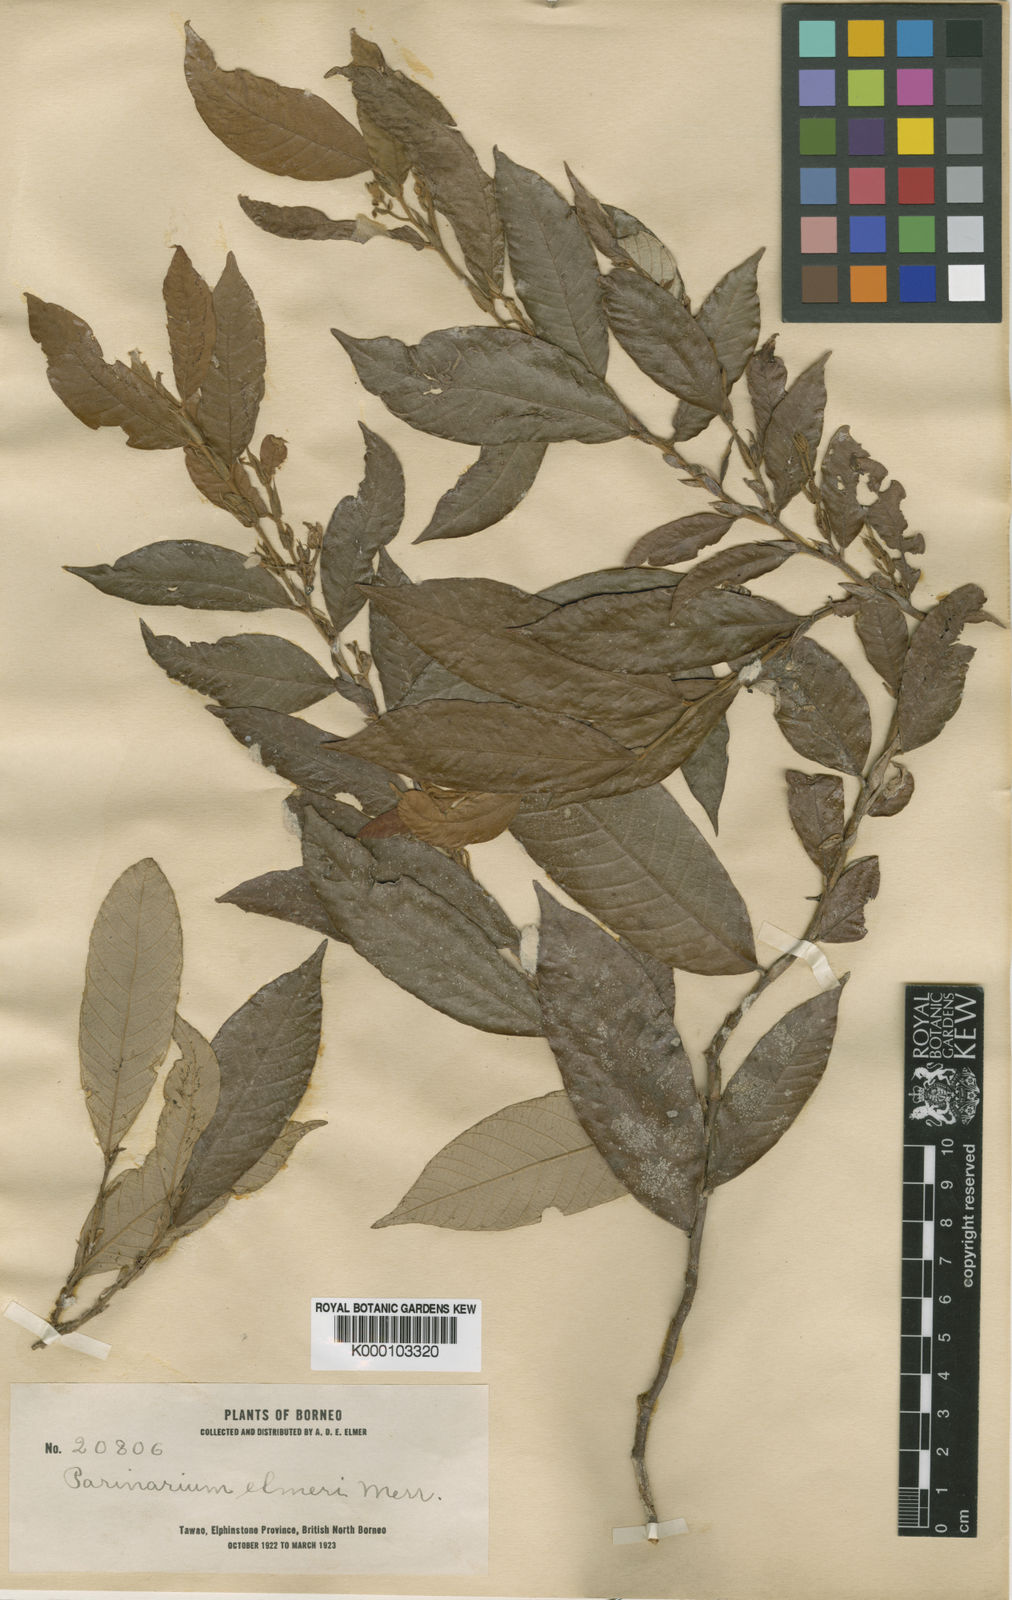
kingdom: Plantae
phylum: Tracheophyta
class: Magnoliopsida
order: Malpighiales
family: Chrysobalanaceae
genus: Parinari
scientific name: Parinari elmeri
